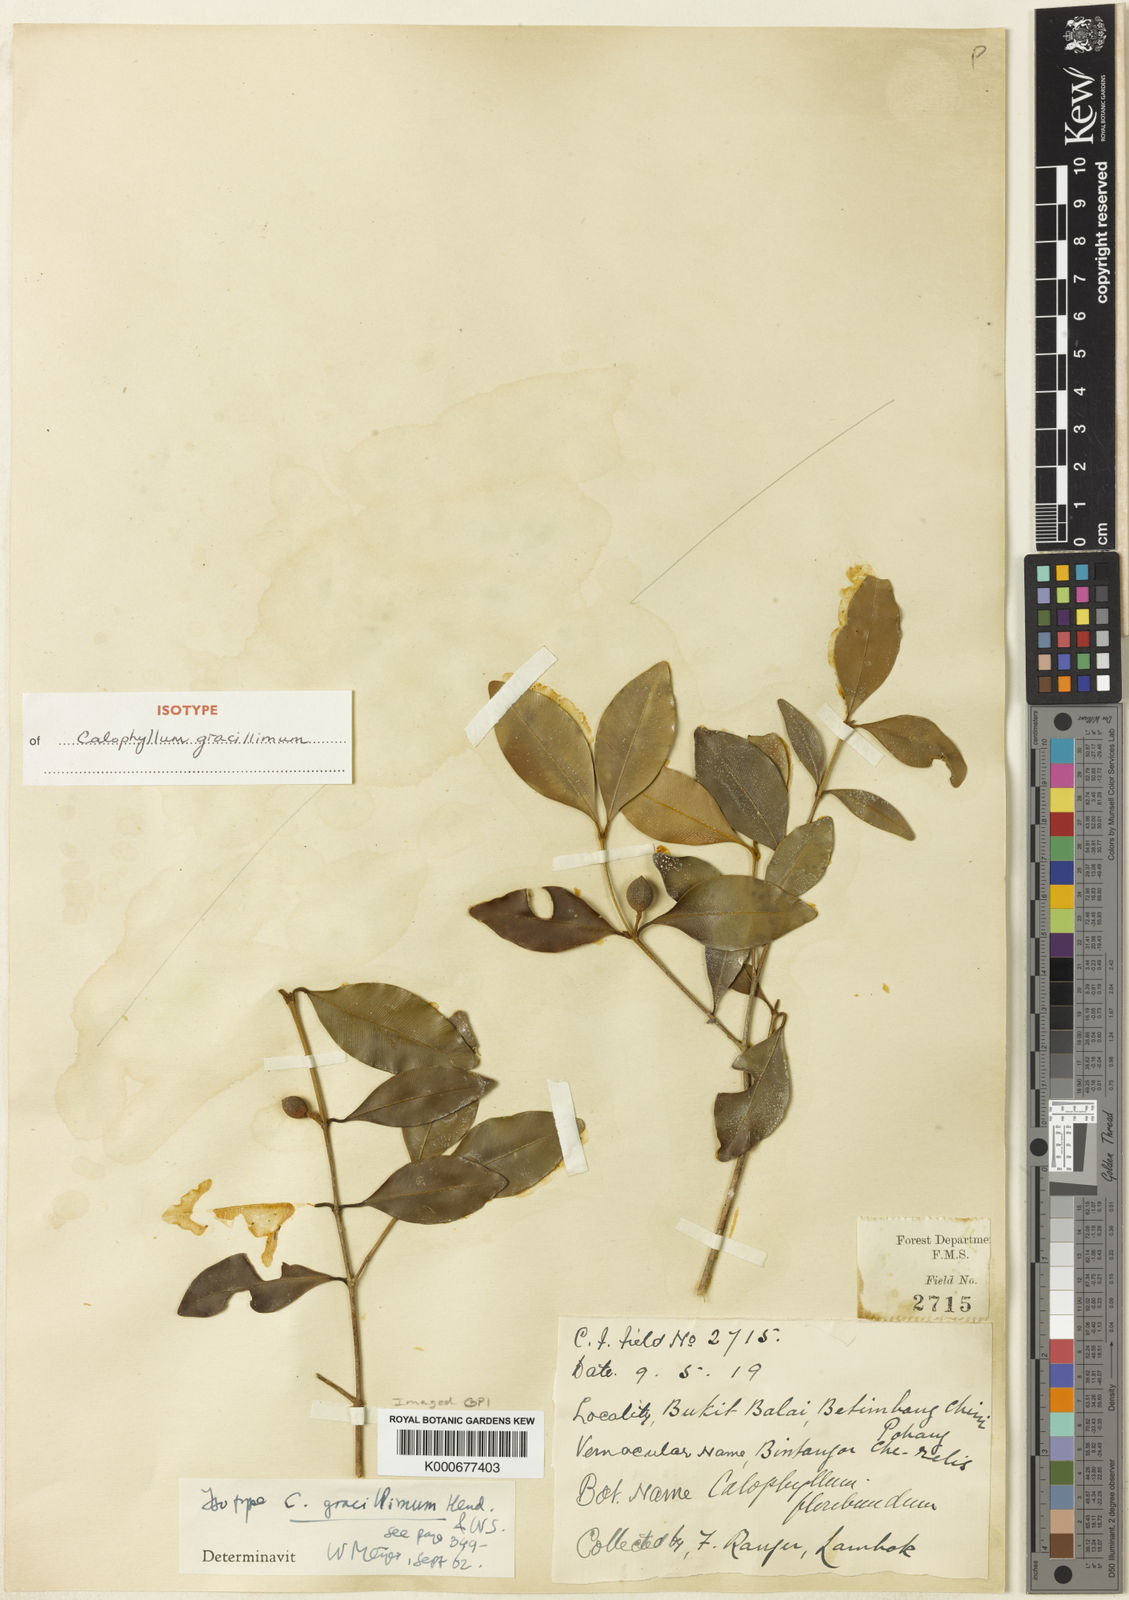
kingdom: Plantae
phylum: Tracheophyta
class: Magnoliopsida
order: Malpighiales
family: Calophyllaceae
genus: Calophyllum
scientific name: Calophyllum gracillimum
